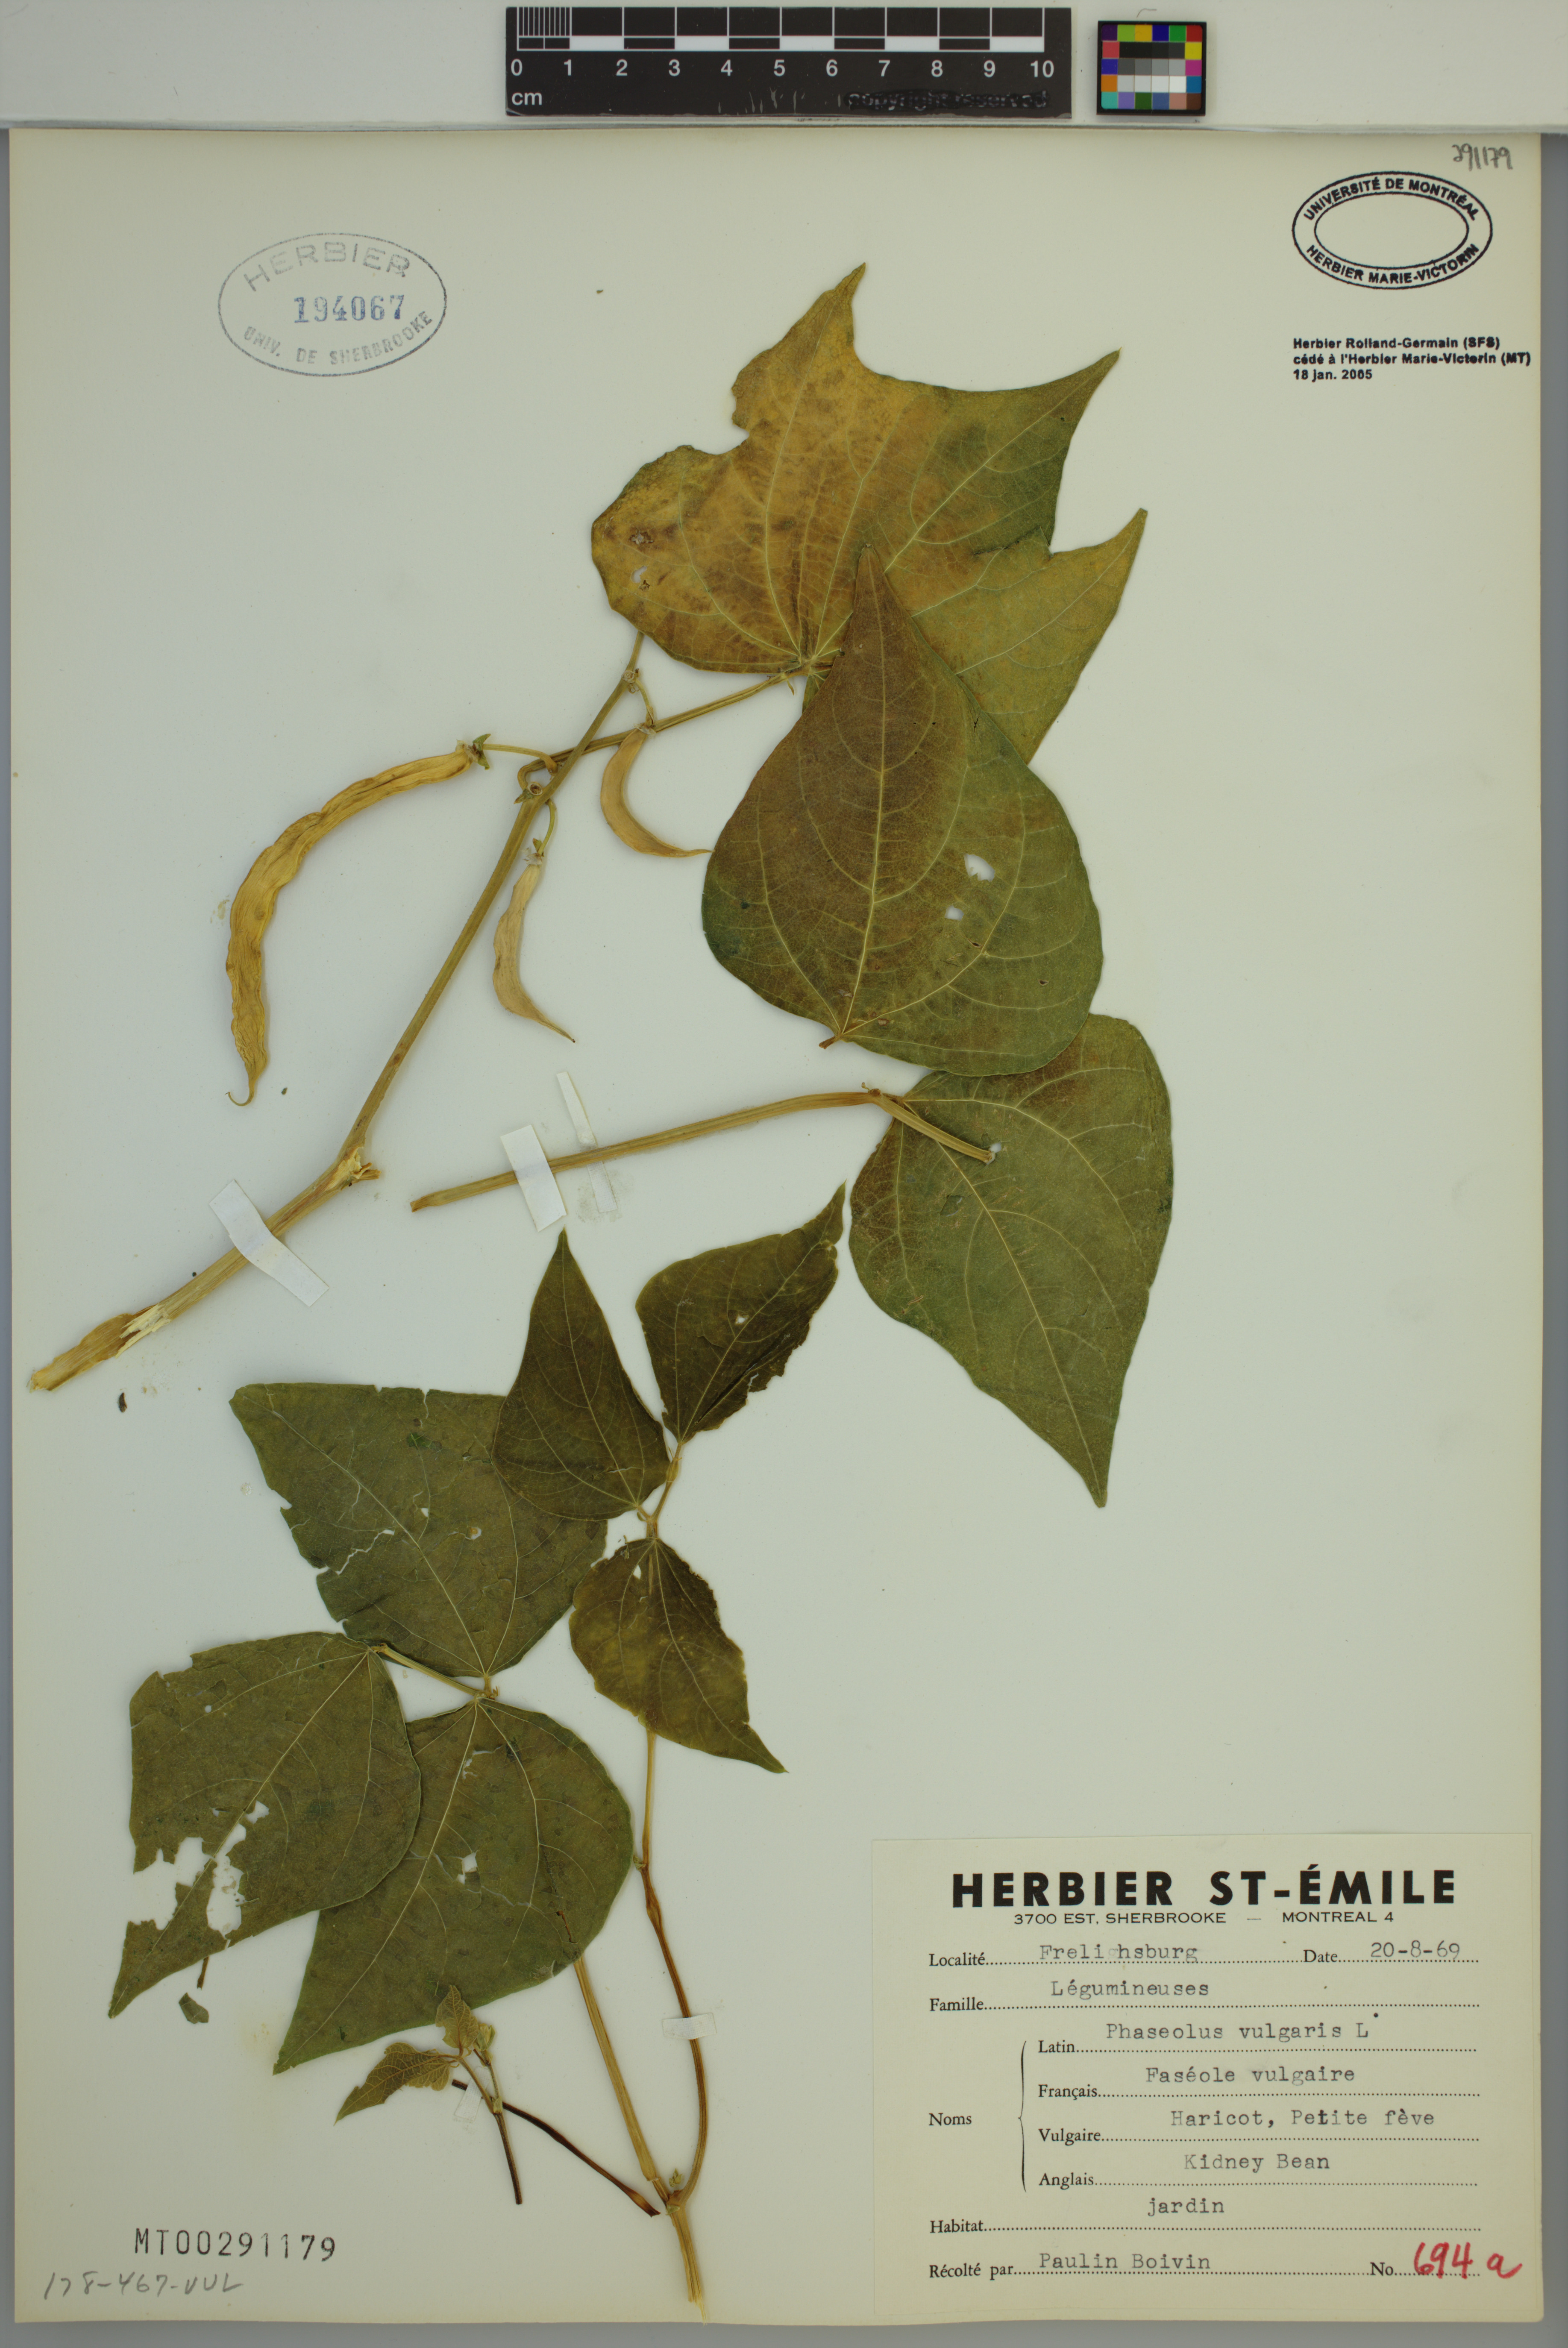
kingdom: Plantae
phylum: Tracheophyta
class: Magnoliopsida
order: Fabales
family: Fabaceae
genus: Phaseolus
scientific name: Phaseolus vulgaris
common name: Bean
